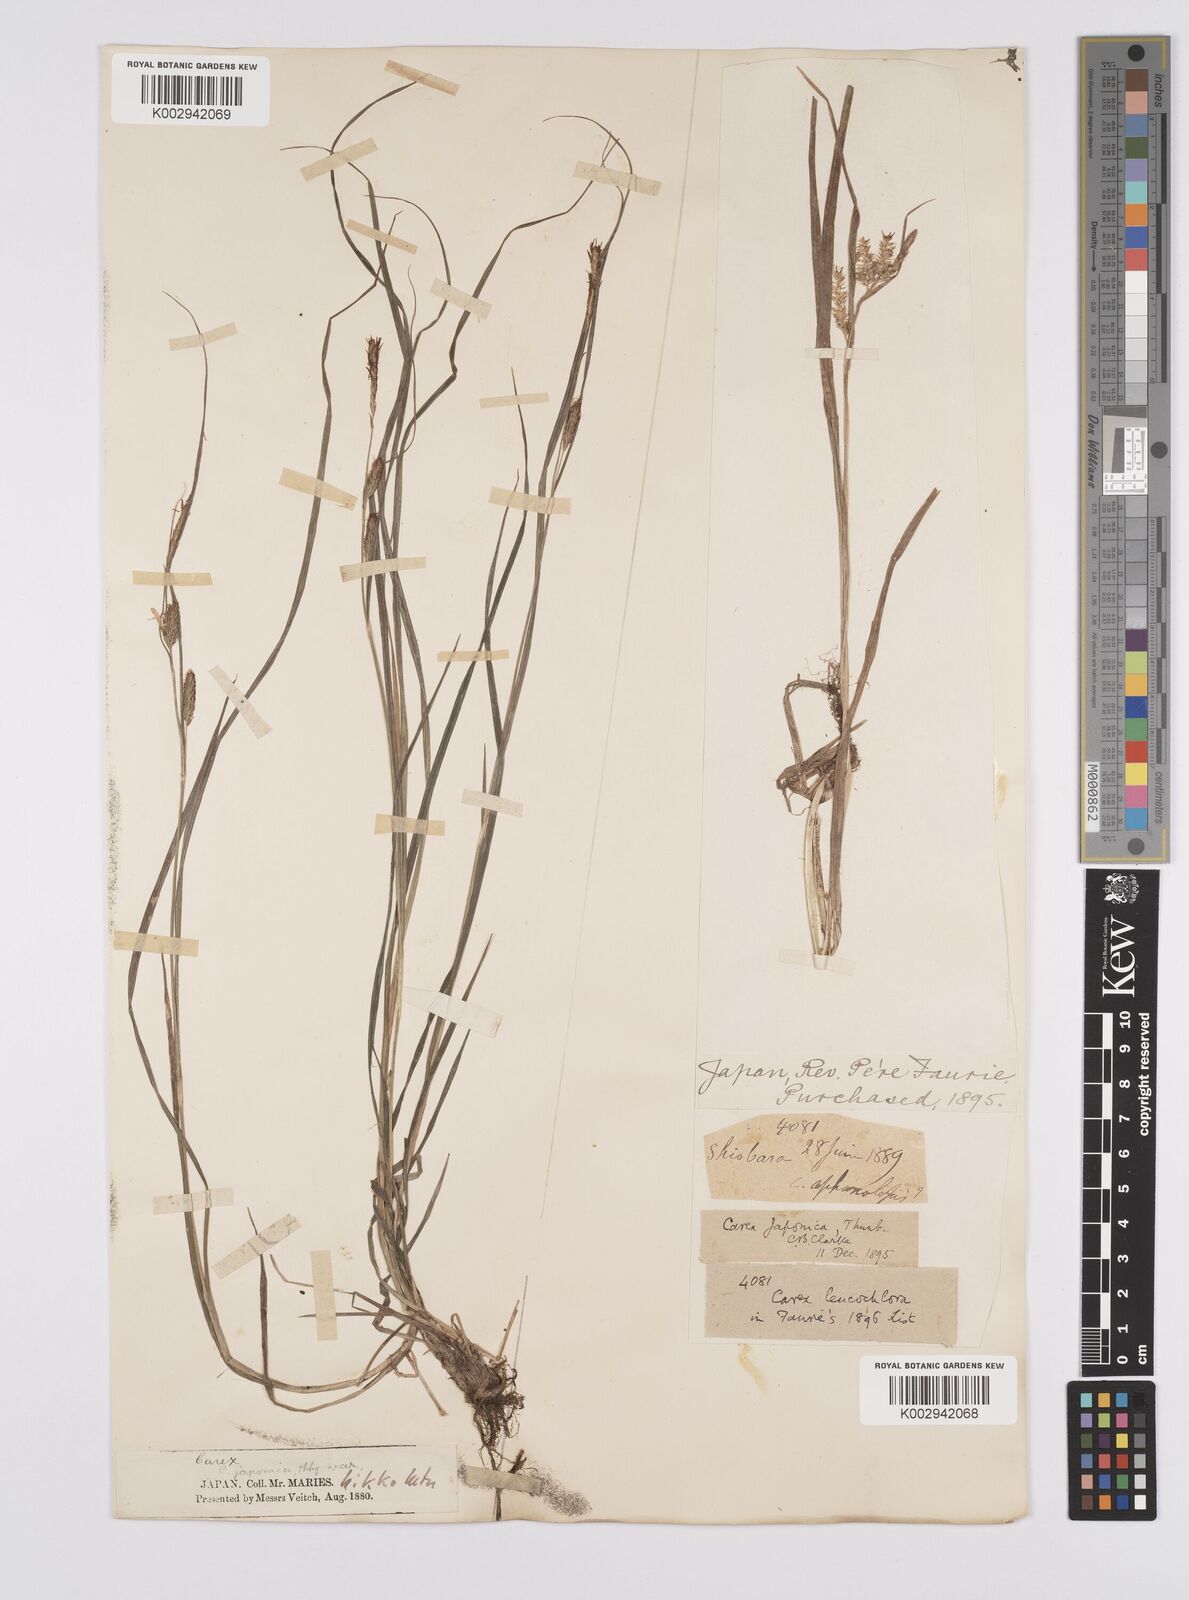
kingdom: Plantae
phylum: Tracheophyta
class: Liliopsida
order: Poales
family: Cyperaceae
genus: Carex
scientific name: Carex japonica
